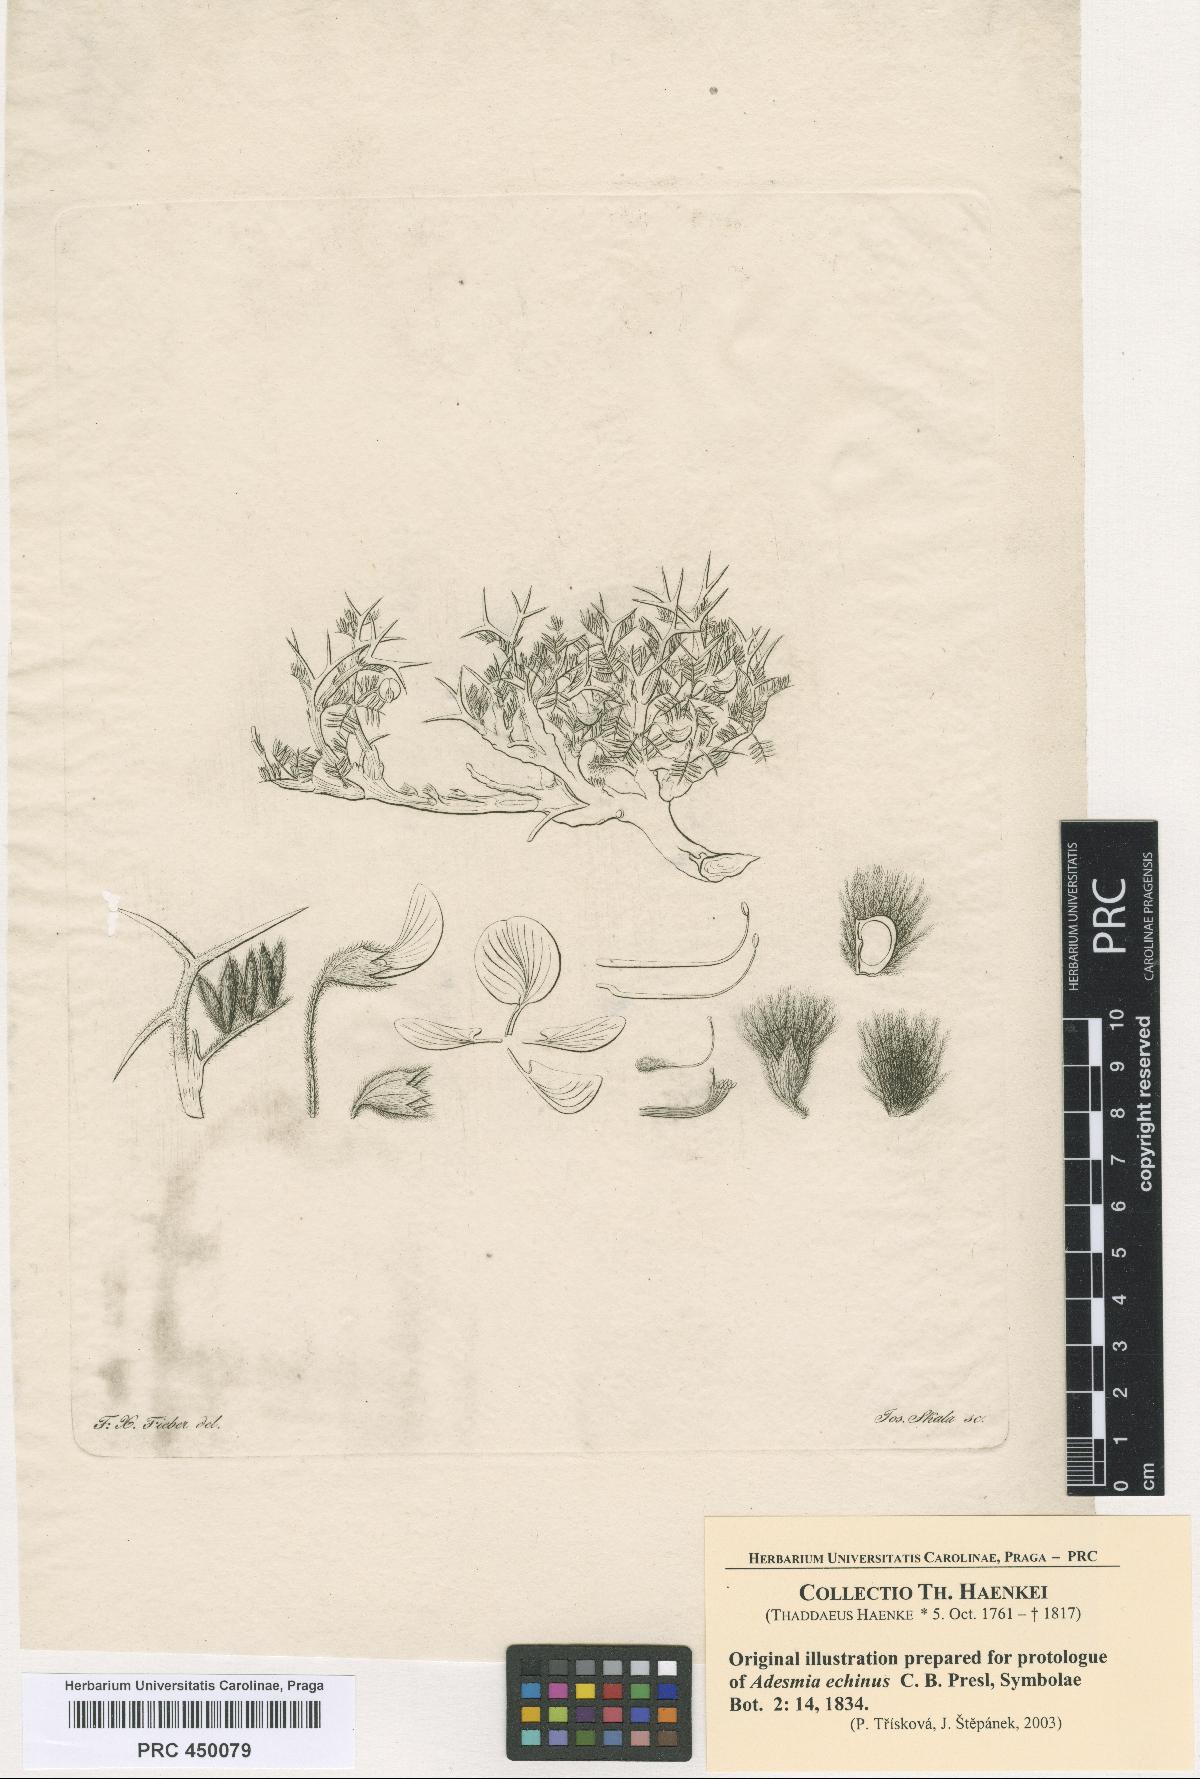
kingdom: Plantae
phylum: Tracheophyta
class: Magnoliopsida
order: Fabales
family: Fabaceae
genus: Adesmia
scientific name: Adesmia echinus
